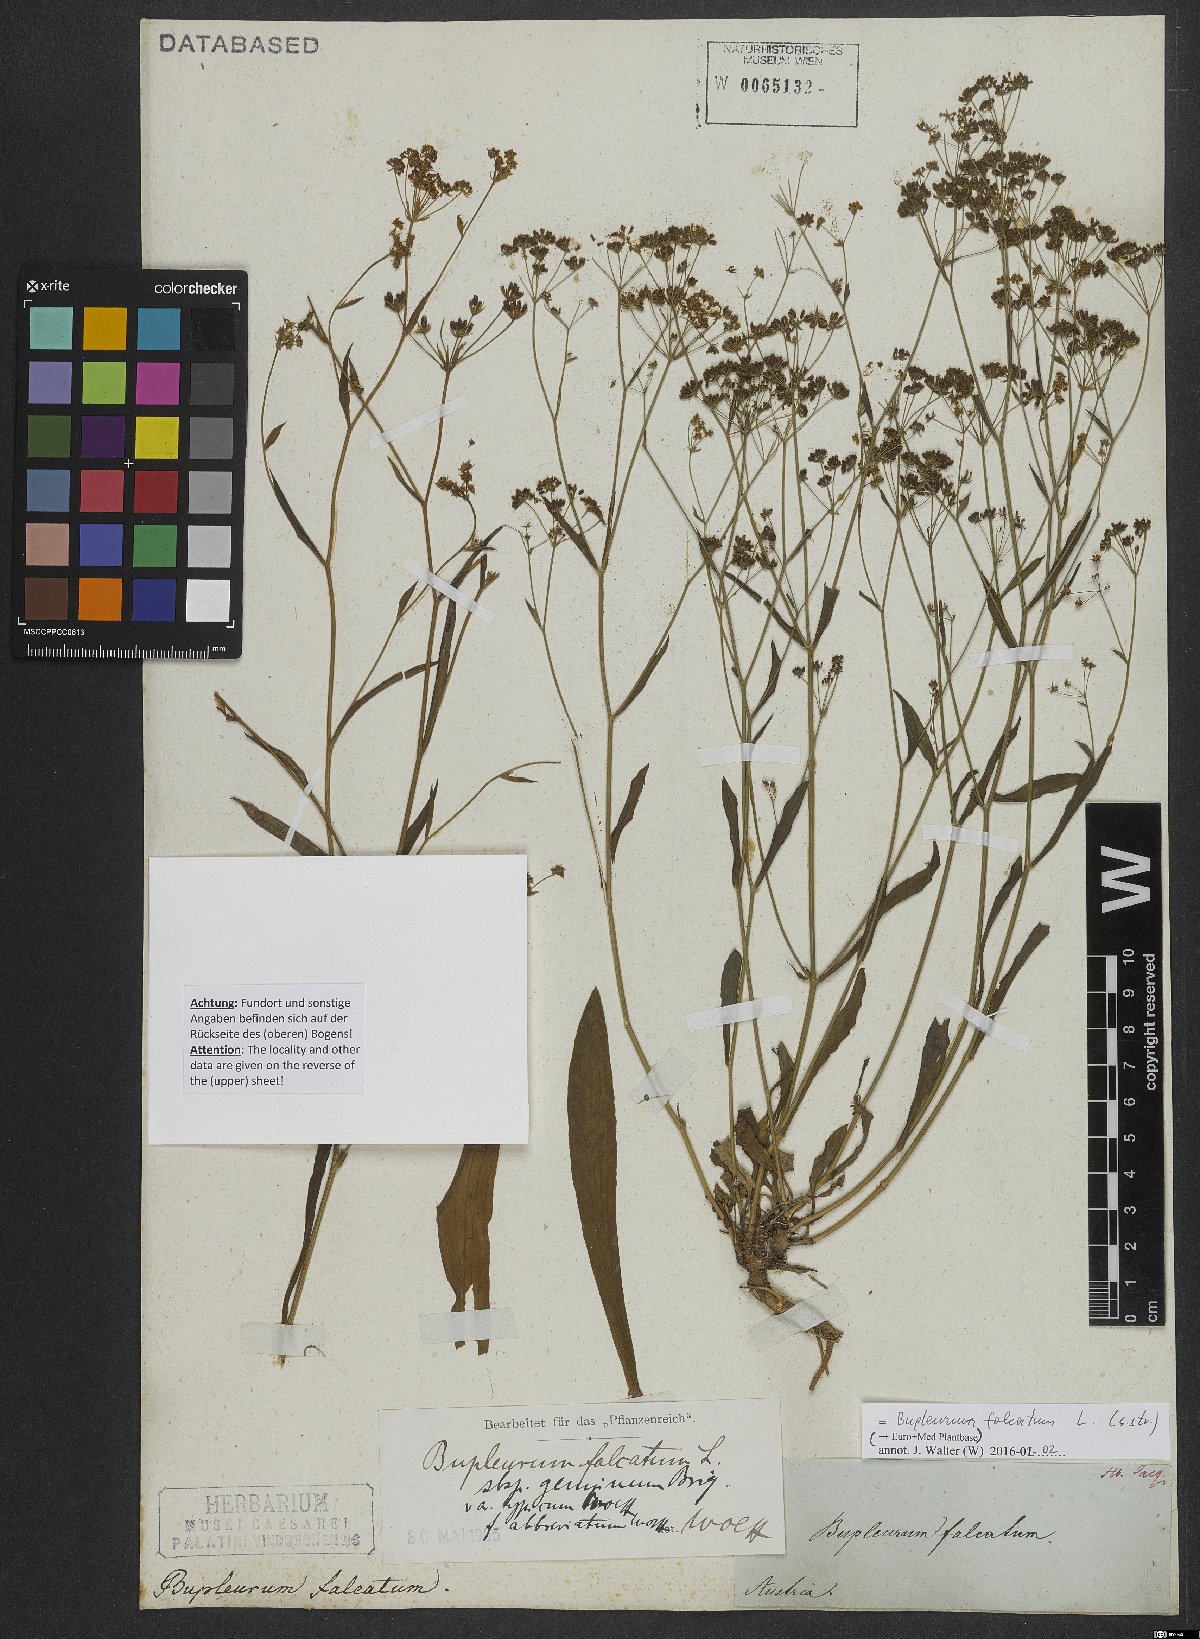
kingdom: Plantae
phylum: Tracheophyta
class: Magnoliopsida
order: Apiales
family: Apiaceae
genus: Bupleurum
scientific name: Bupleurum falcatum
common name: Sickle-leaved hare's-ear
